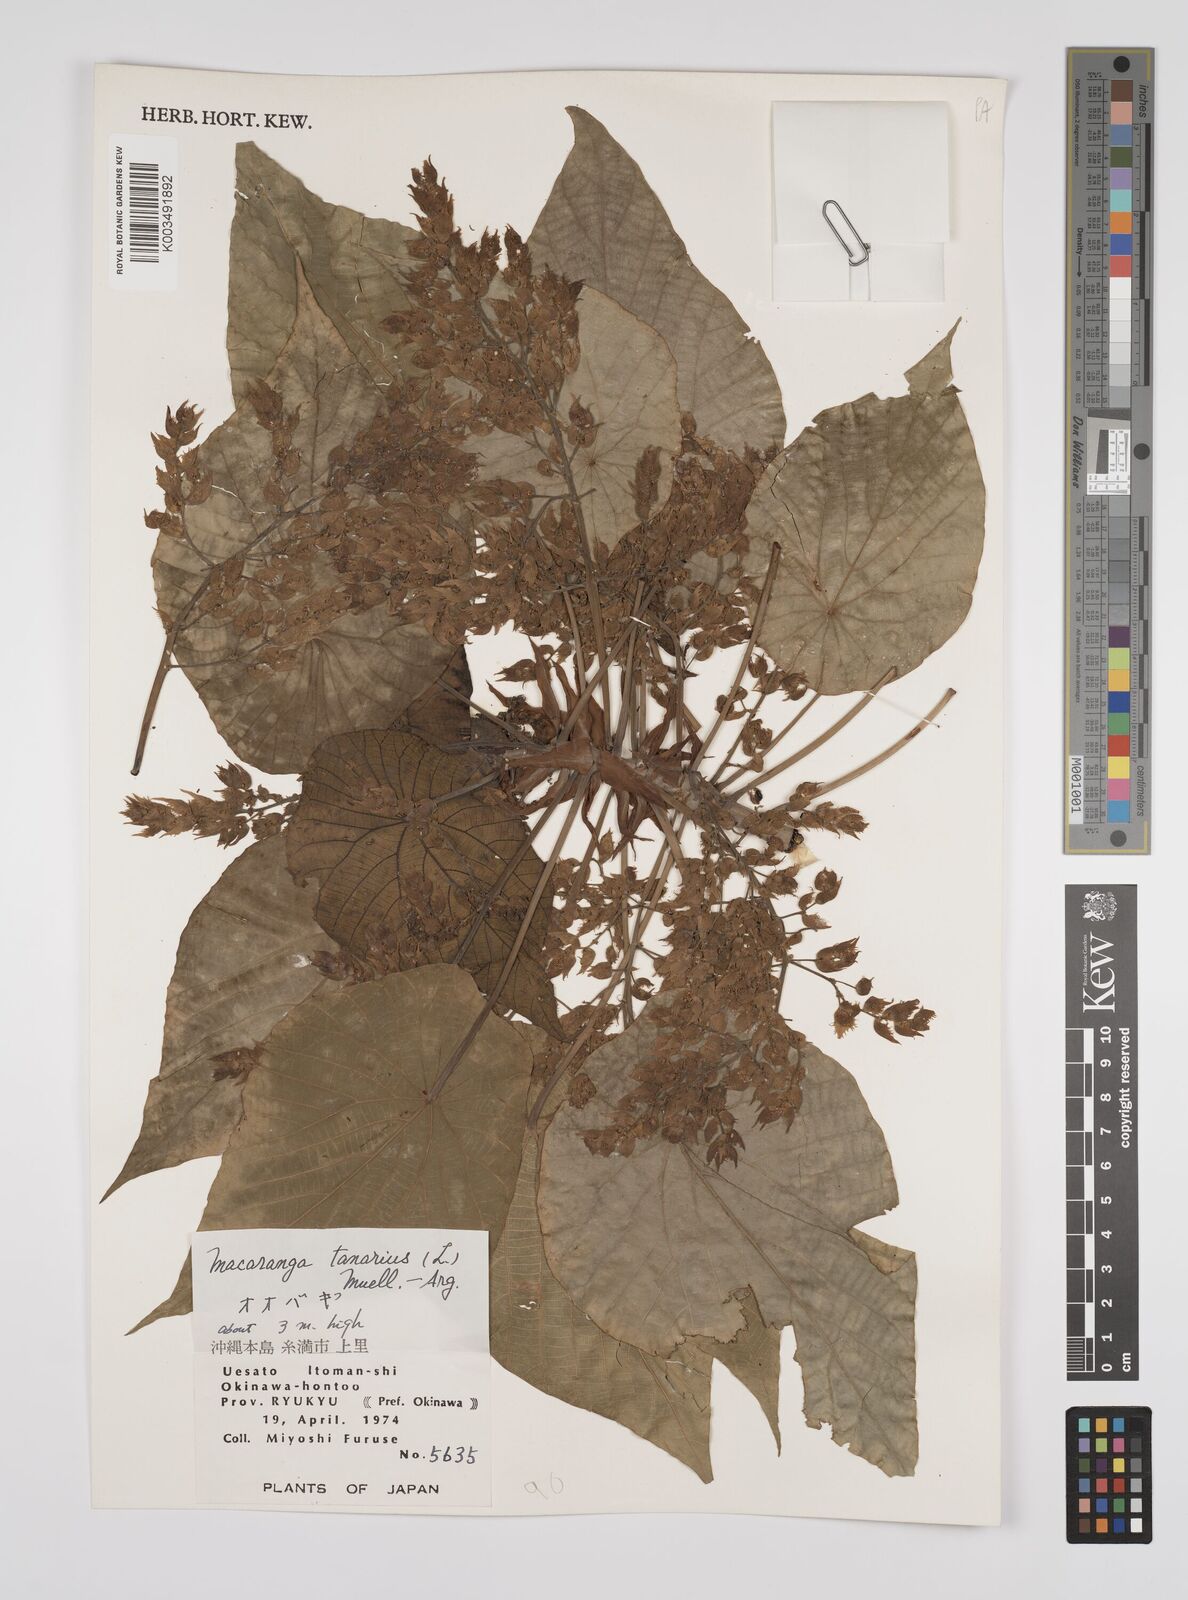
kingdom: Plantae
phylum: Tracheophyta
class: Magnoliopsida
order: Malpighiales
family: Euphorbiaceae
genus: Macaranga
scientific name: Macaranga tanarius
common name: Parasol leaf tree
